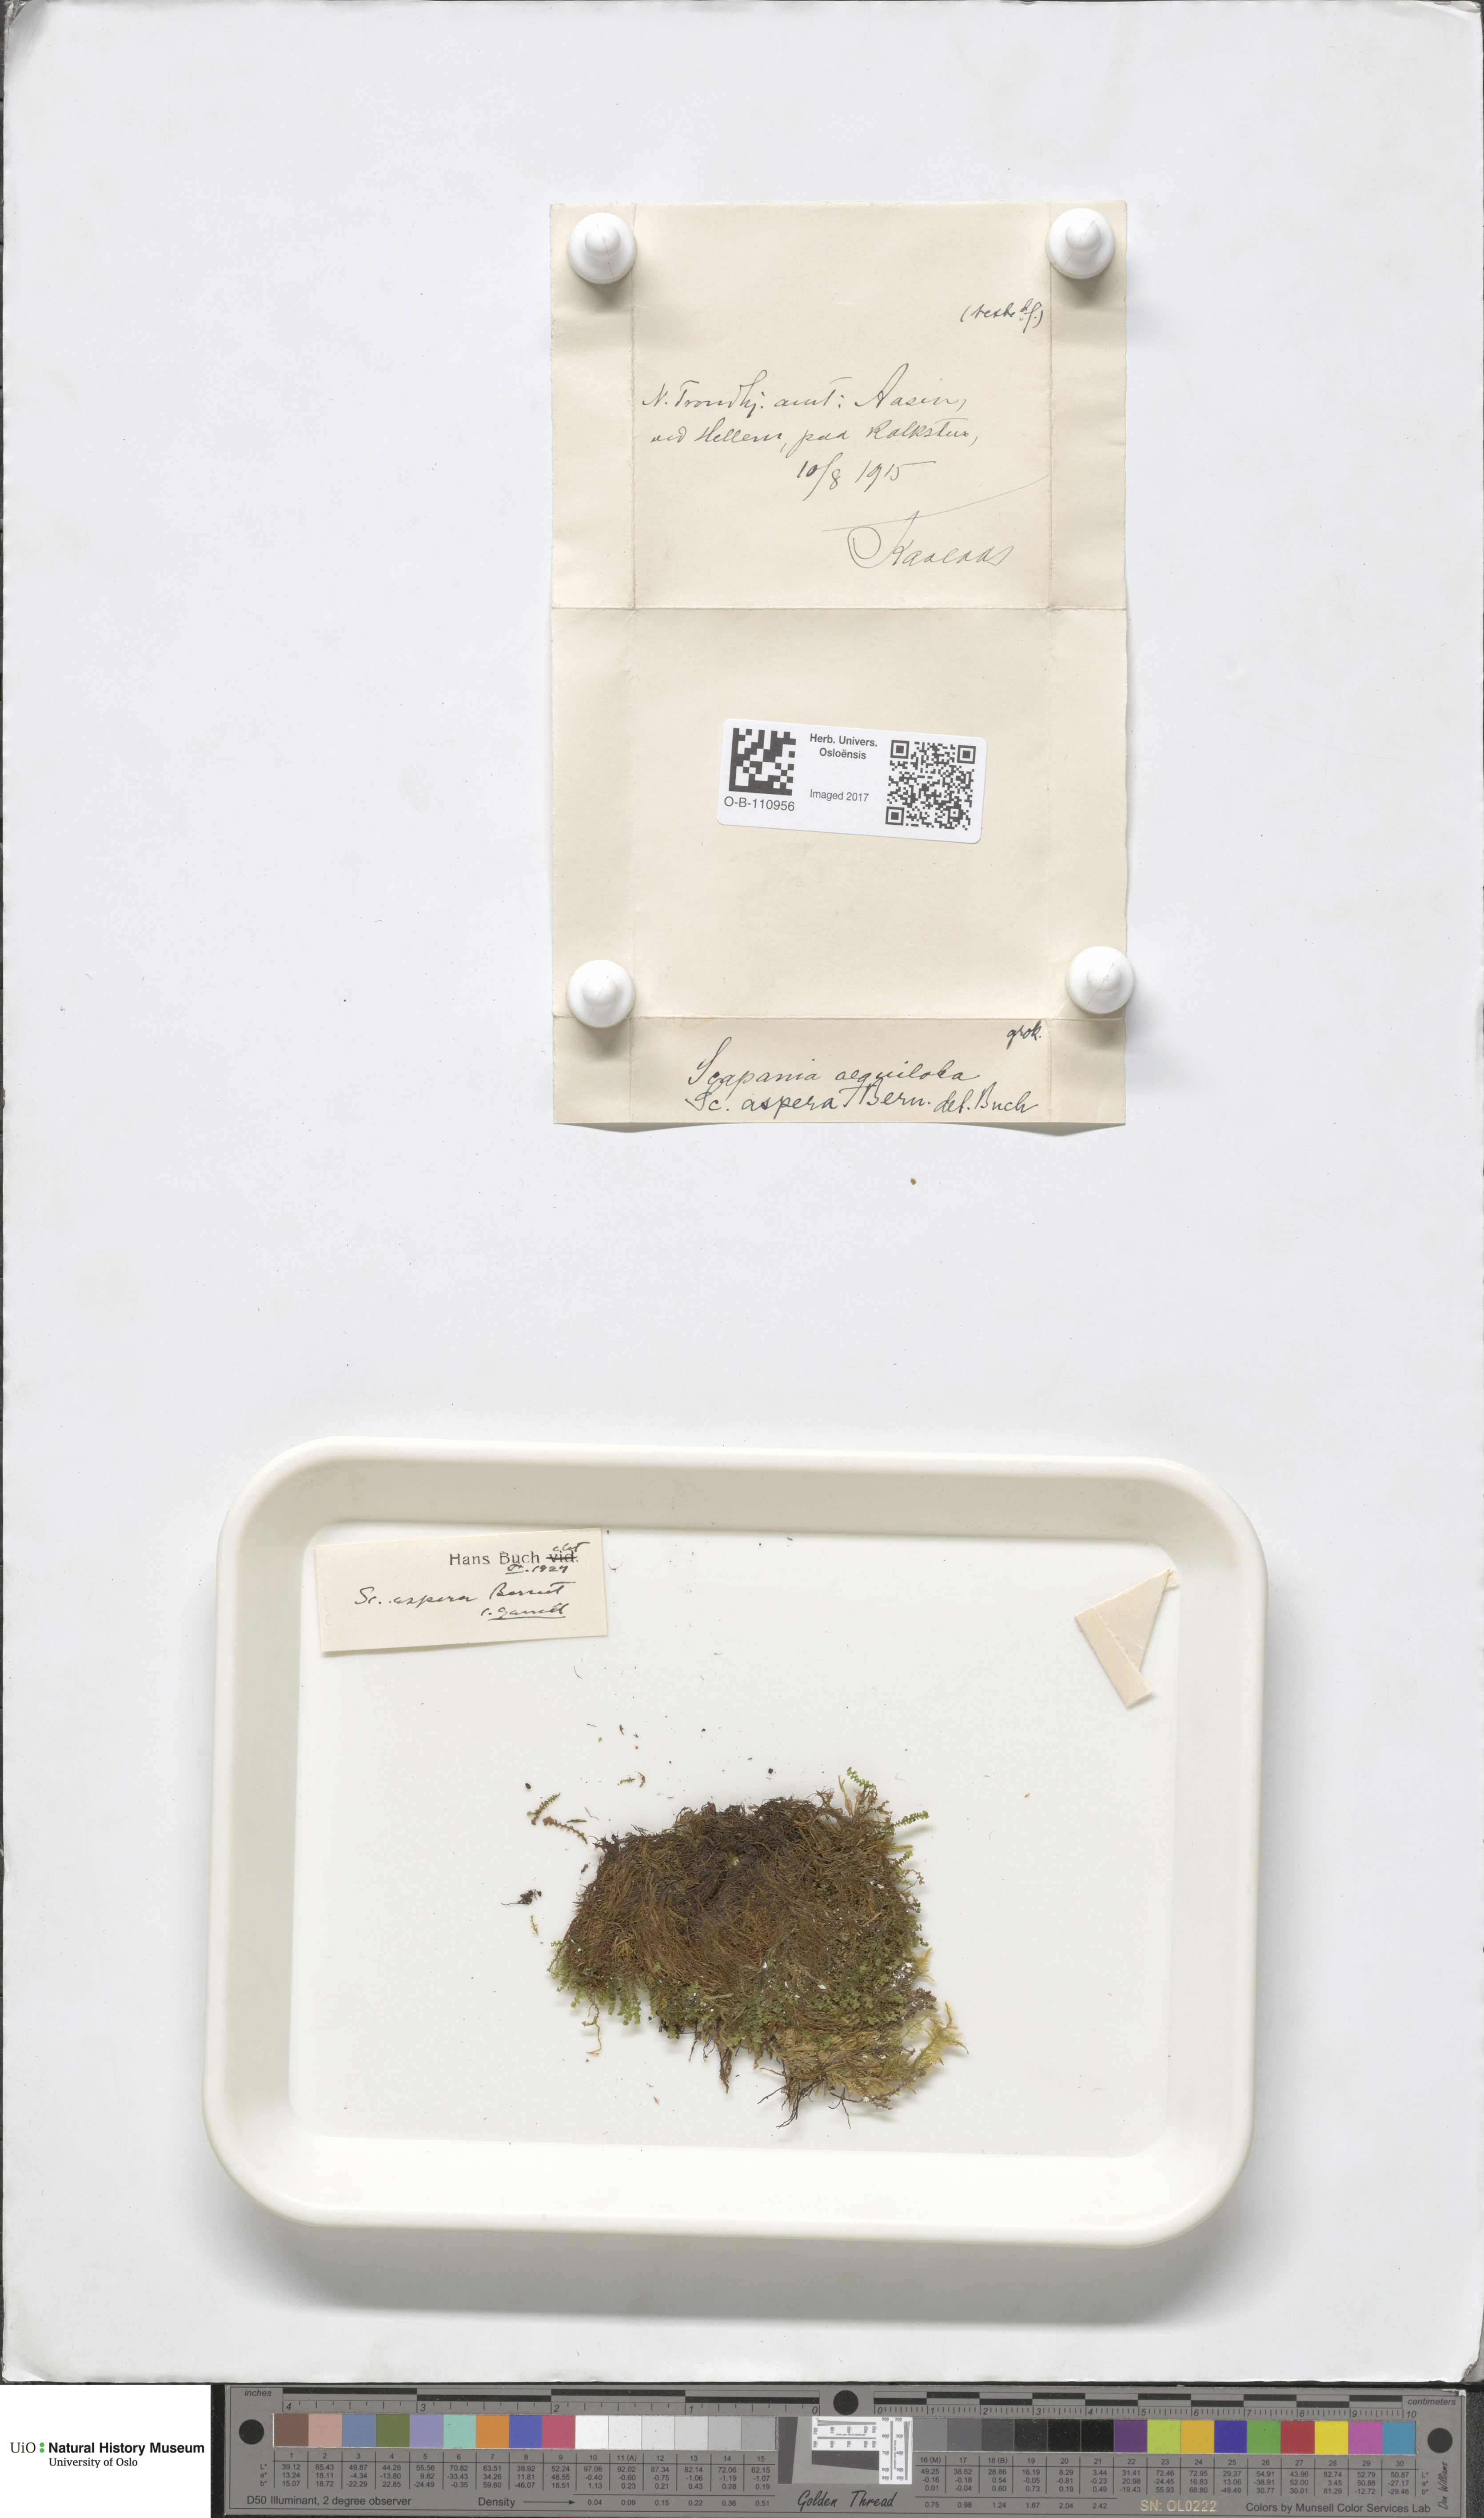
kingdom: Plantae
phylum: Marchantiophyta
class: Jungermanniopsida
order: Jungermanniales
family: Scapaniaceae
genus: Scapania
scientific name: Scapania aspera
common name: Rough earwort
